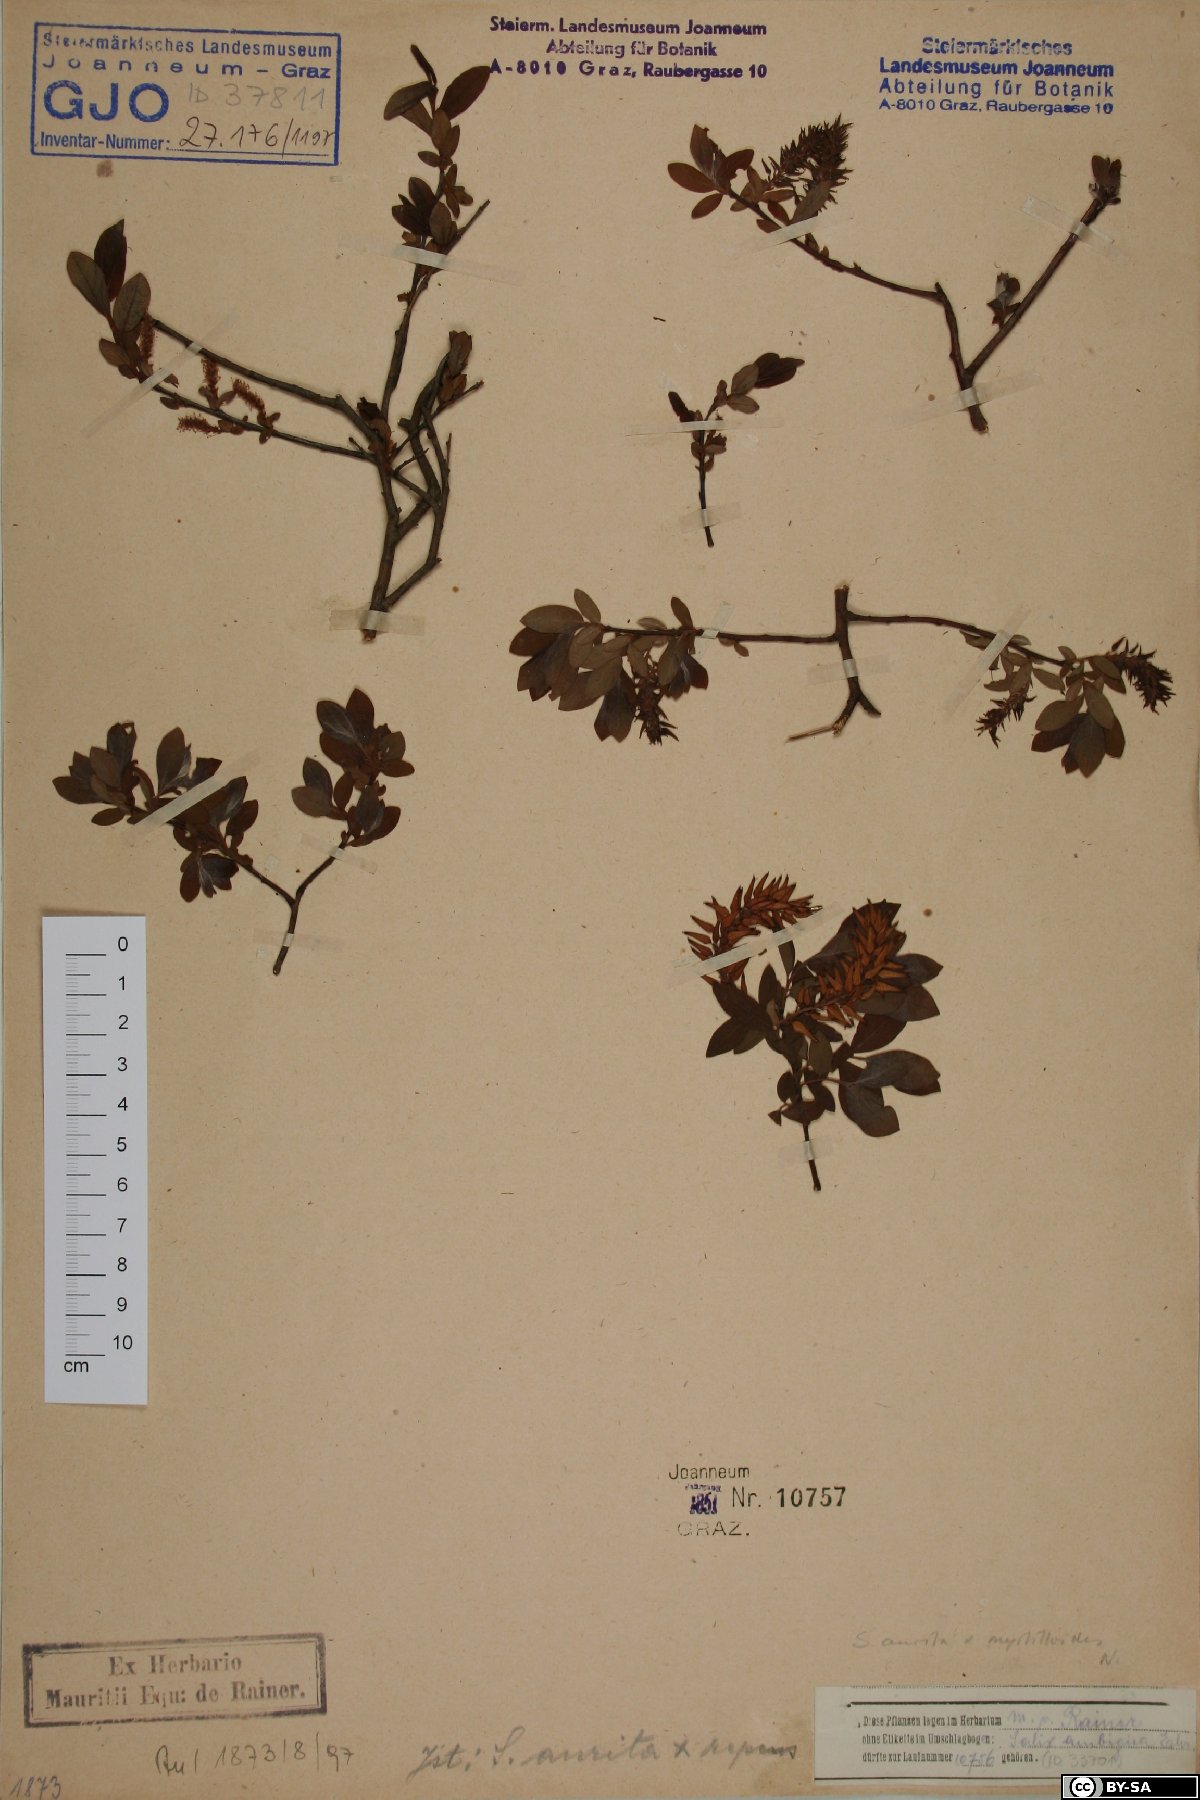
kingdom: Plantae
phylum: Tracheophyta
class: Magnoliopsida
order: Malpighiales
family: Salicaceae
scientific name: Salicaceae
